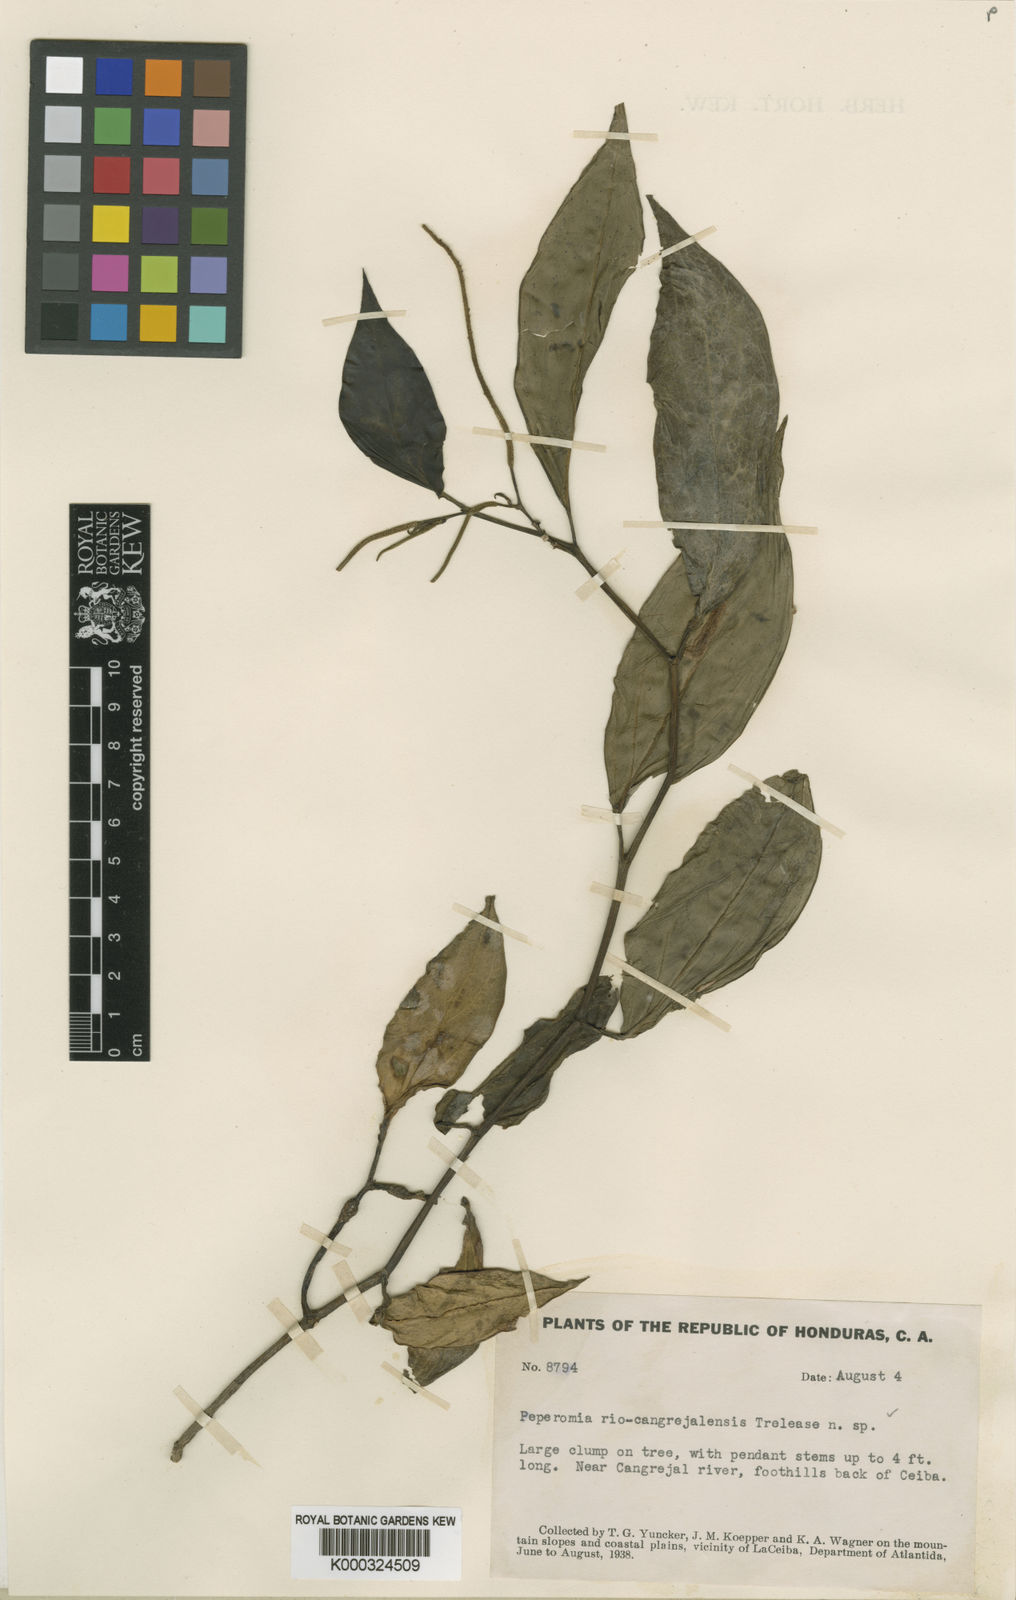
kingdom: Plantae
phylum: Tracheophyta
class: Magnoliopsida
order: Piperales
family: Piperaceae
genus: Peperomia
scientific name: Peperomia
